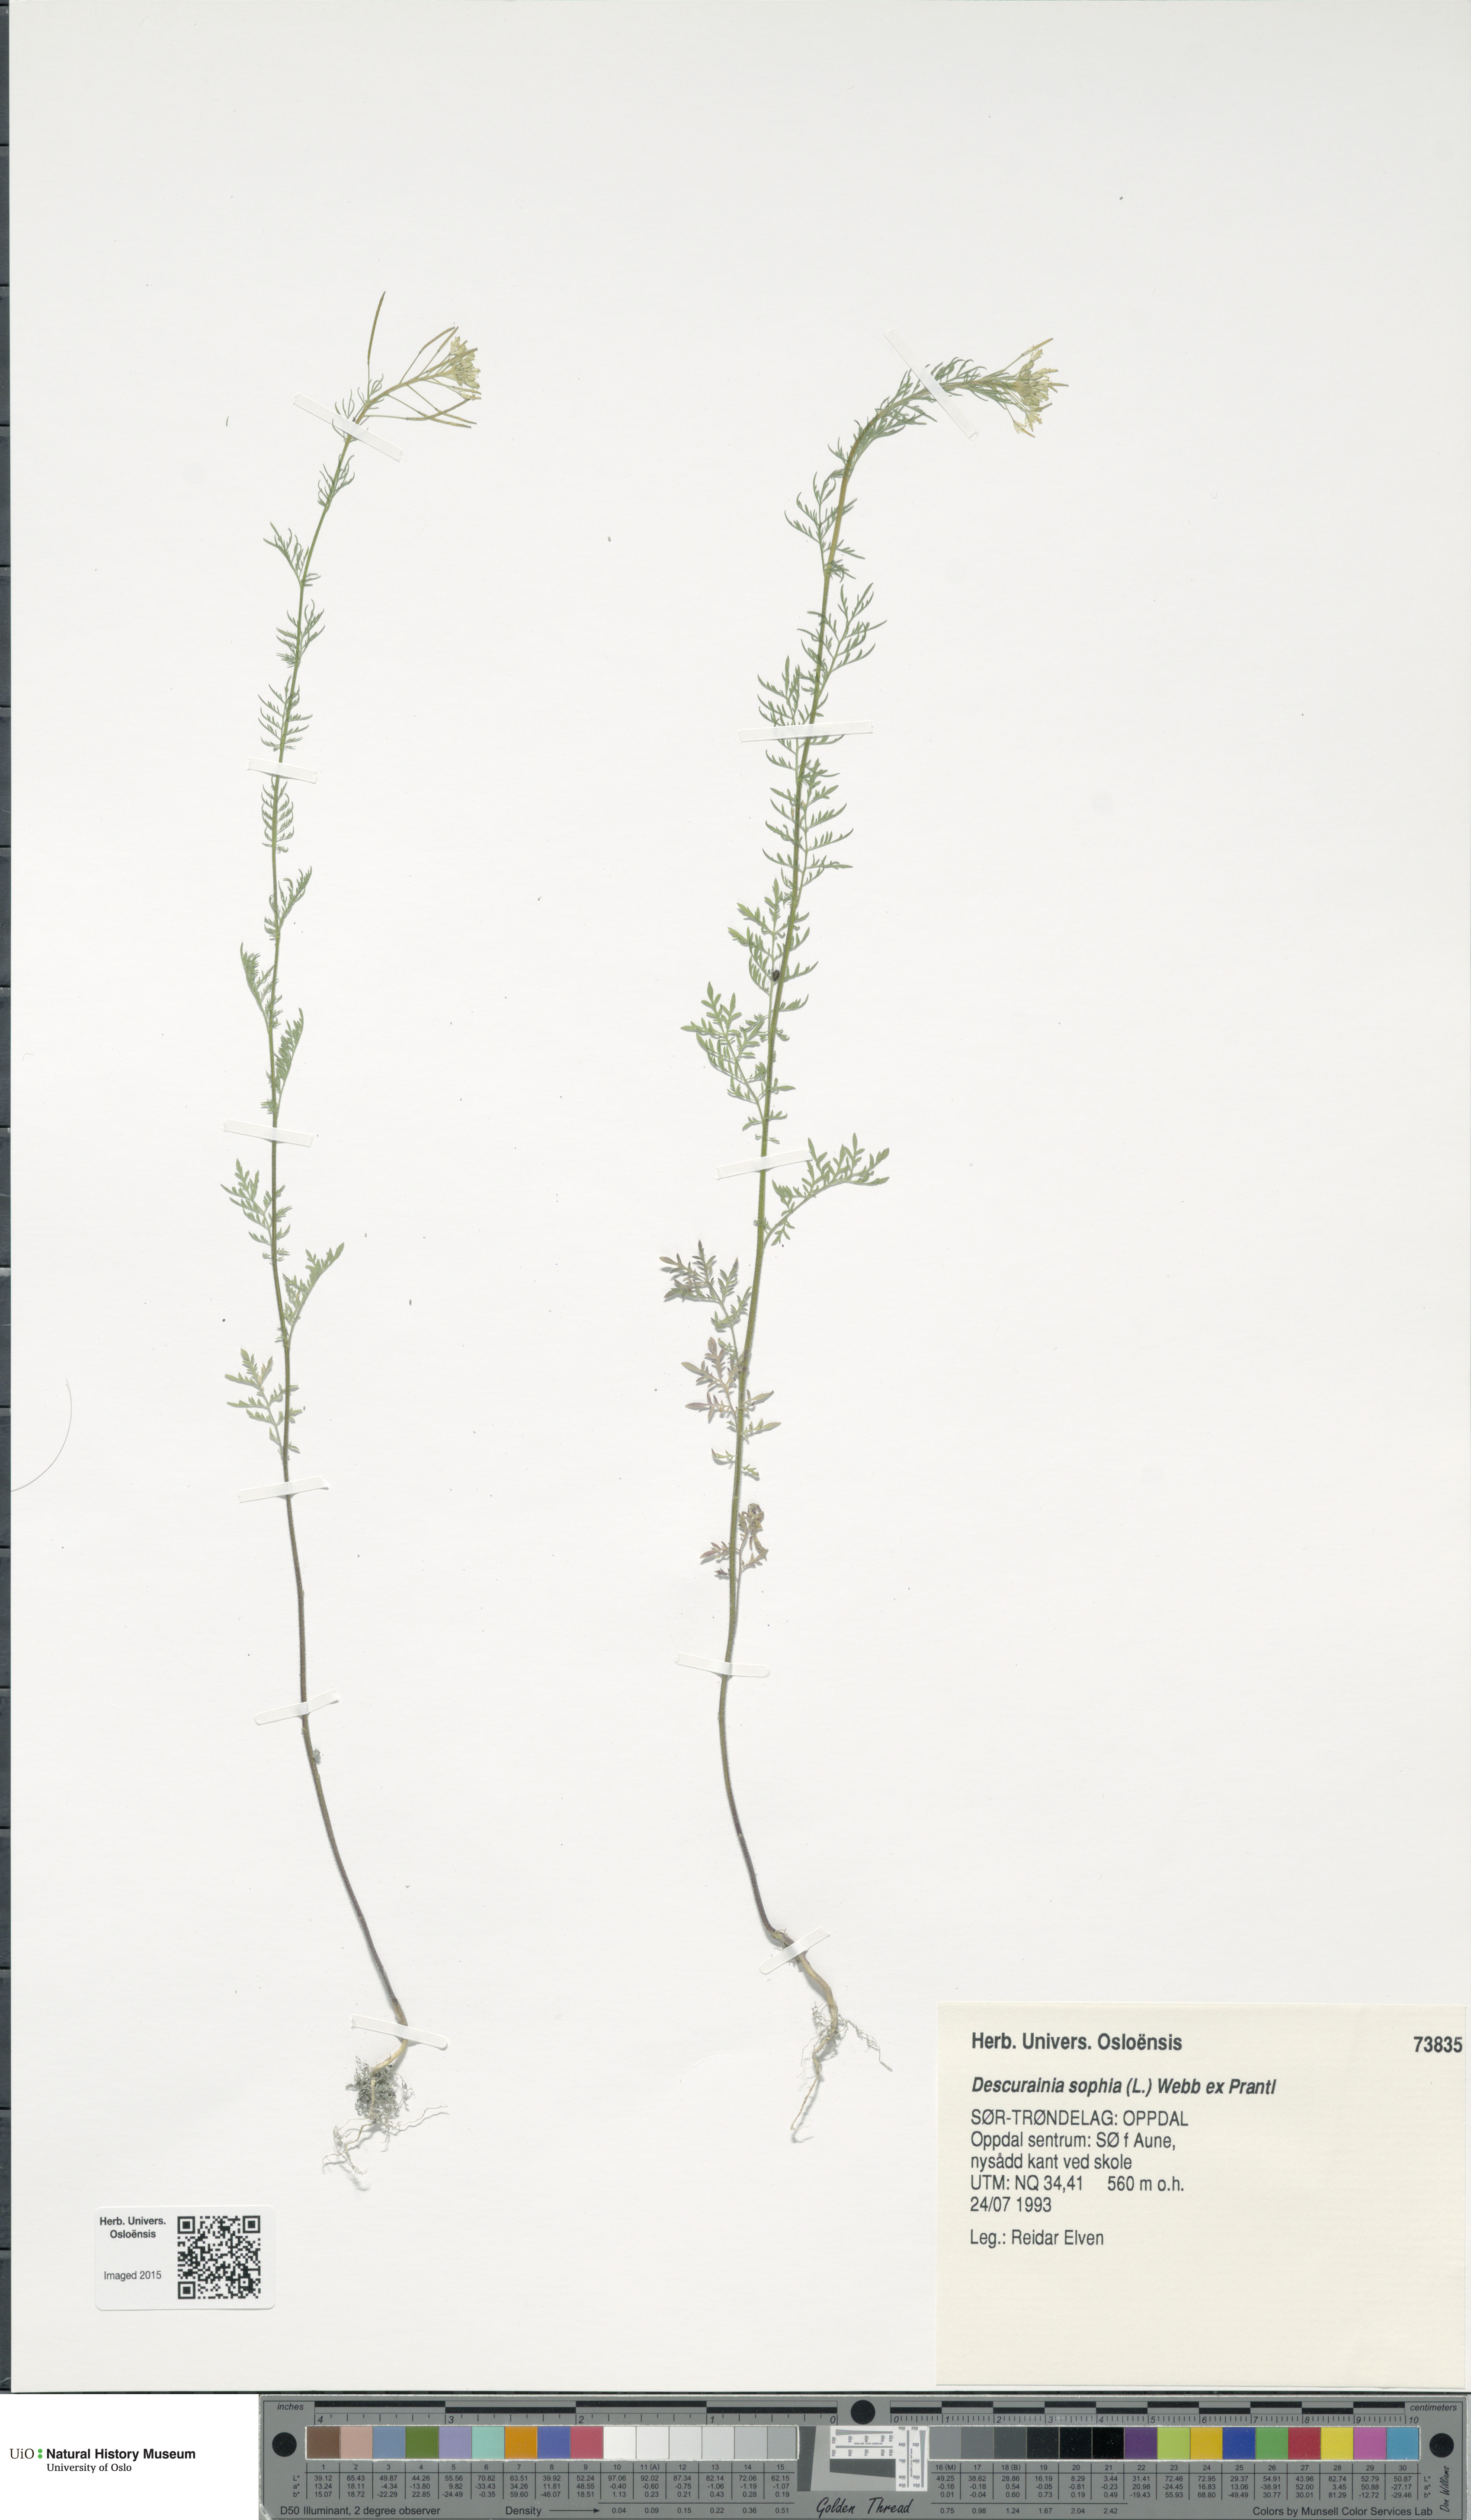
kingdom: Plantae
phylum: Tracheophyta
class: Magnoliopsida
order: Brassicales
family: Brassicaceae
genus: Descurainia
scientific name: Descurainia sophia
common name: Flixweed
